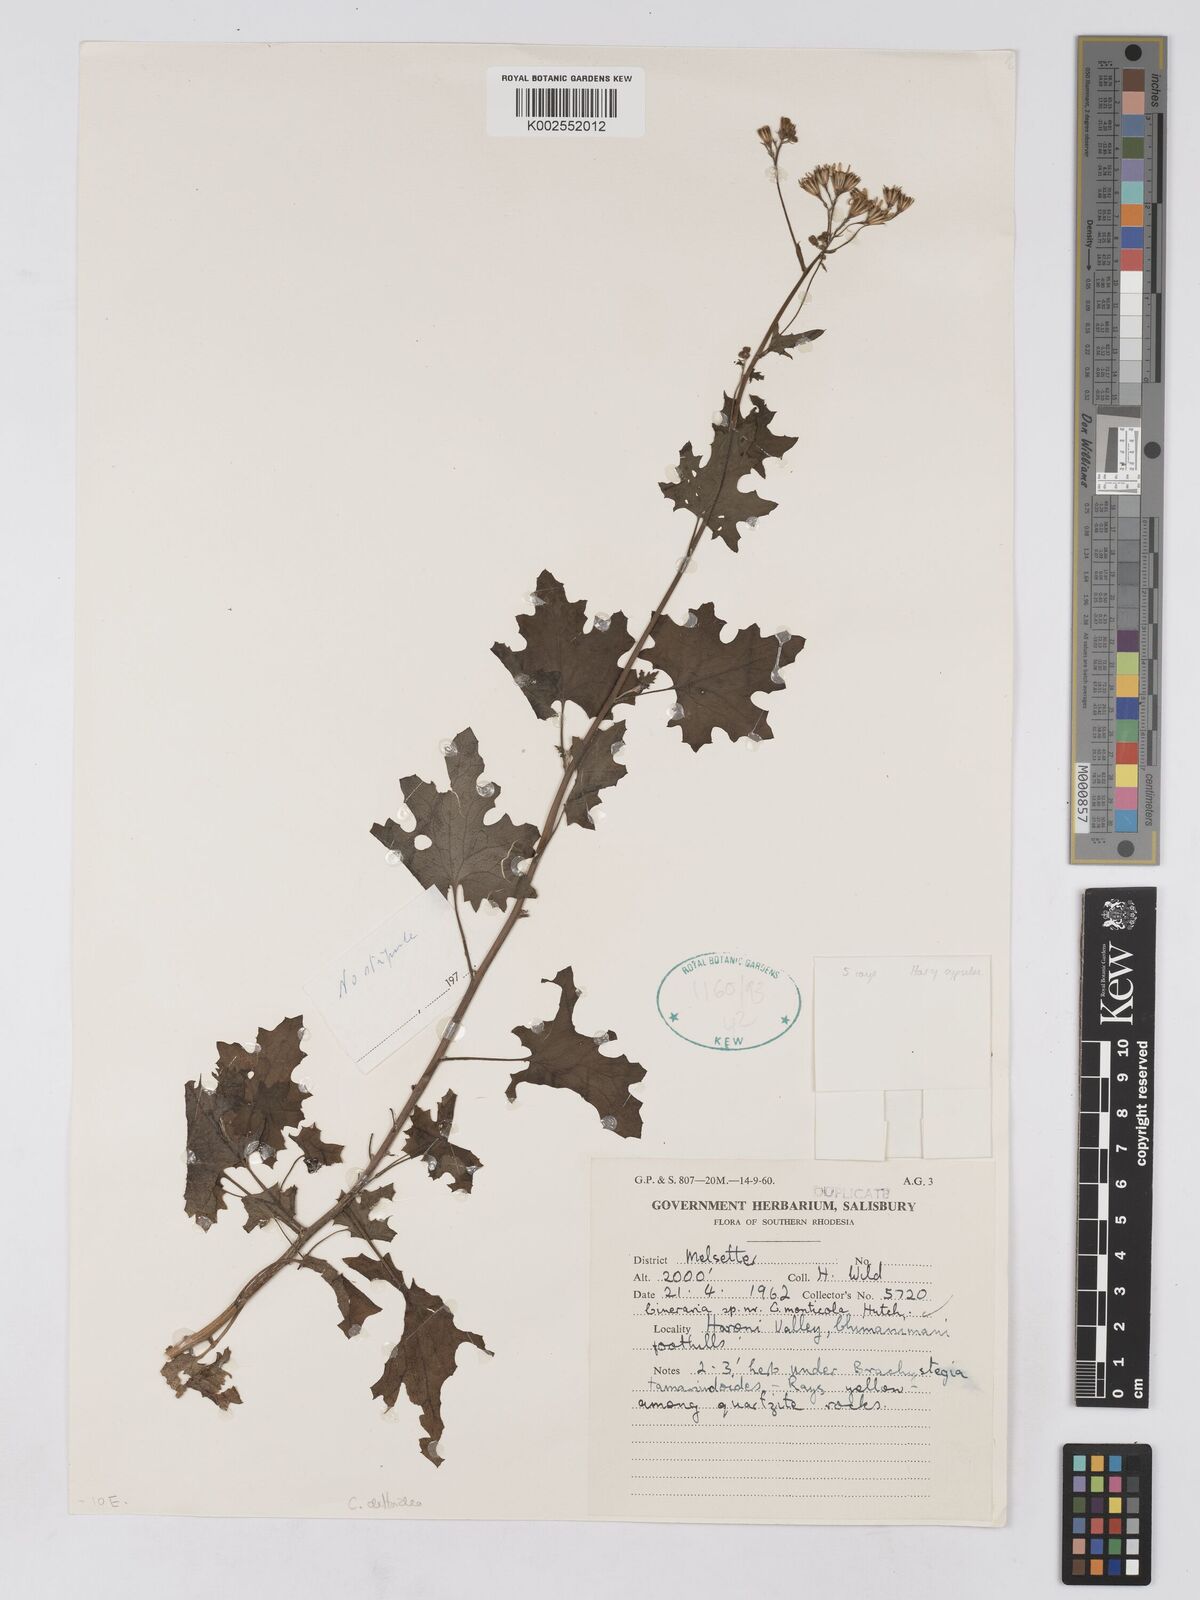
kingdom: Plantae
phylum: Tracheophyta
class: Magnoliopsida
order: Asterales
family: Asteraceae
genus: Cineraria
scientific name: Cineraria deltoidea
